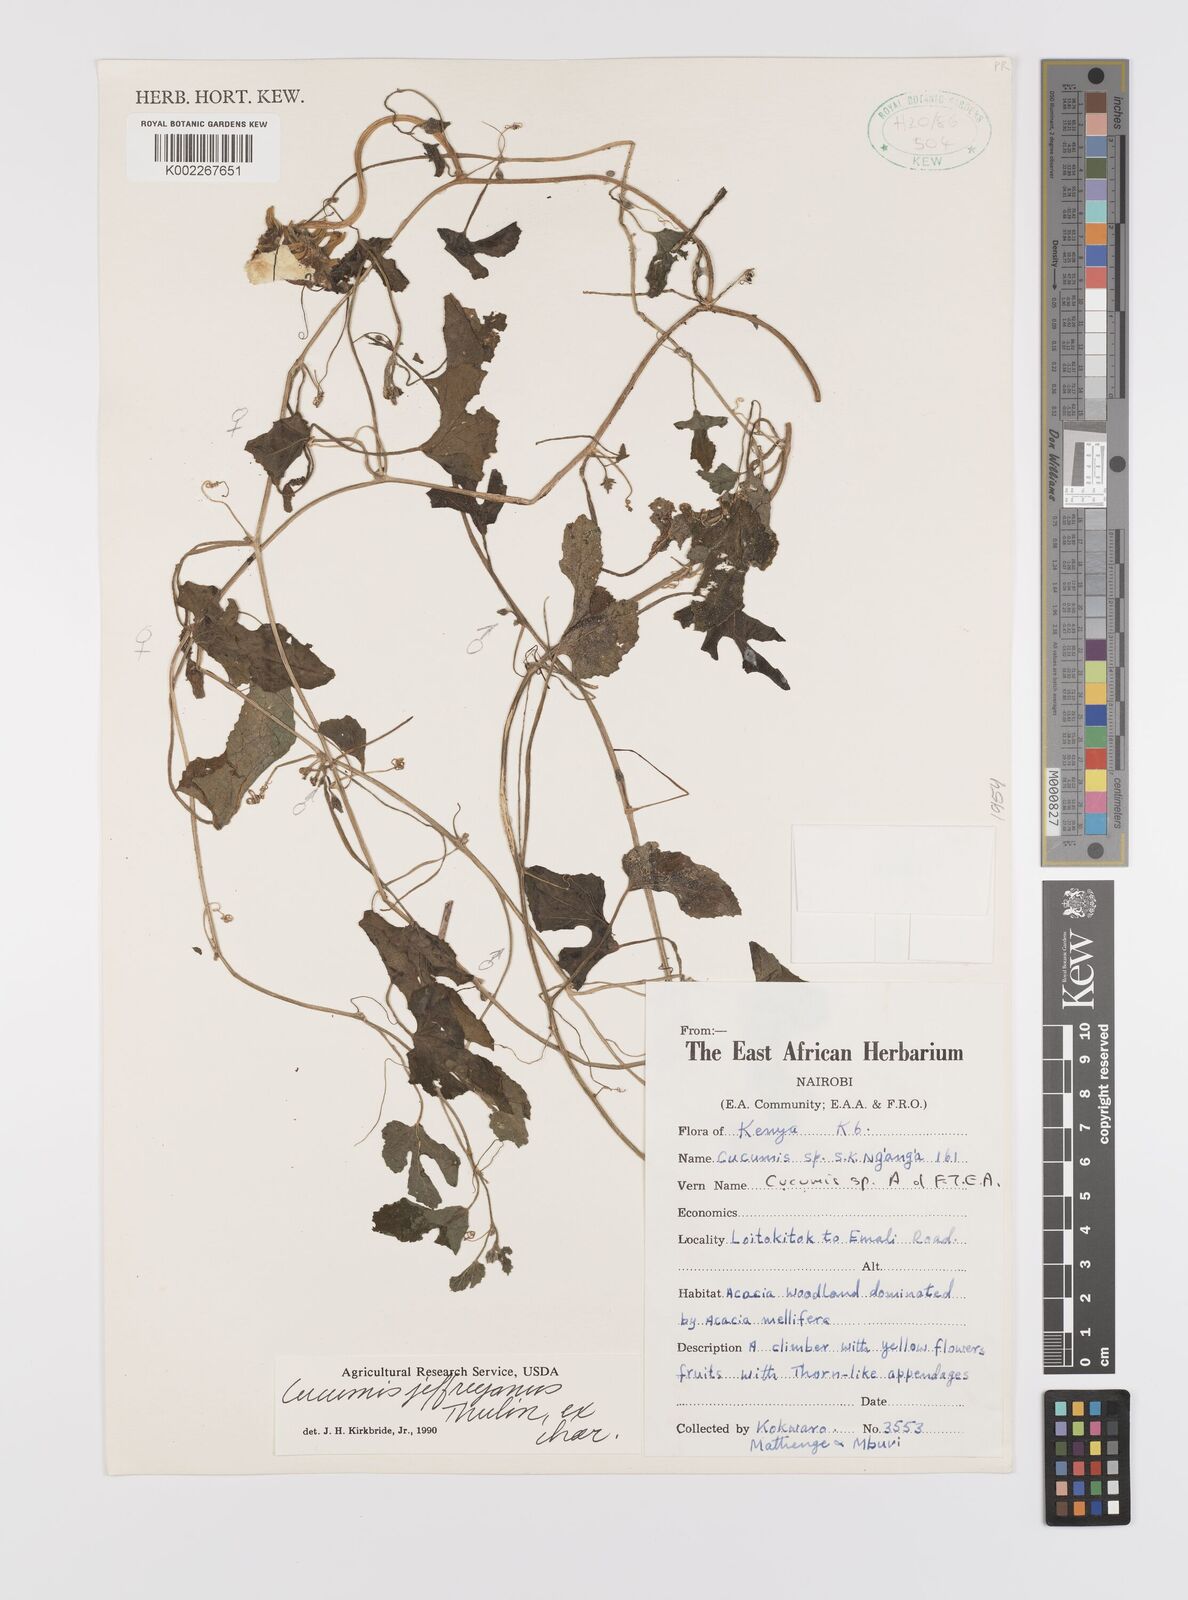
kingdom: Plantae
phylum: Tracheophyta
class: Magnoliopsida
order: Cucurbitales
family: Cucurbitaceae
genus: Cucumis
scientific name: Cucumis
